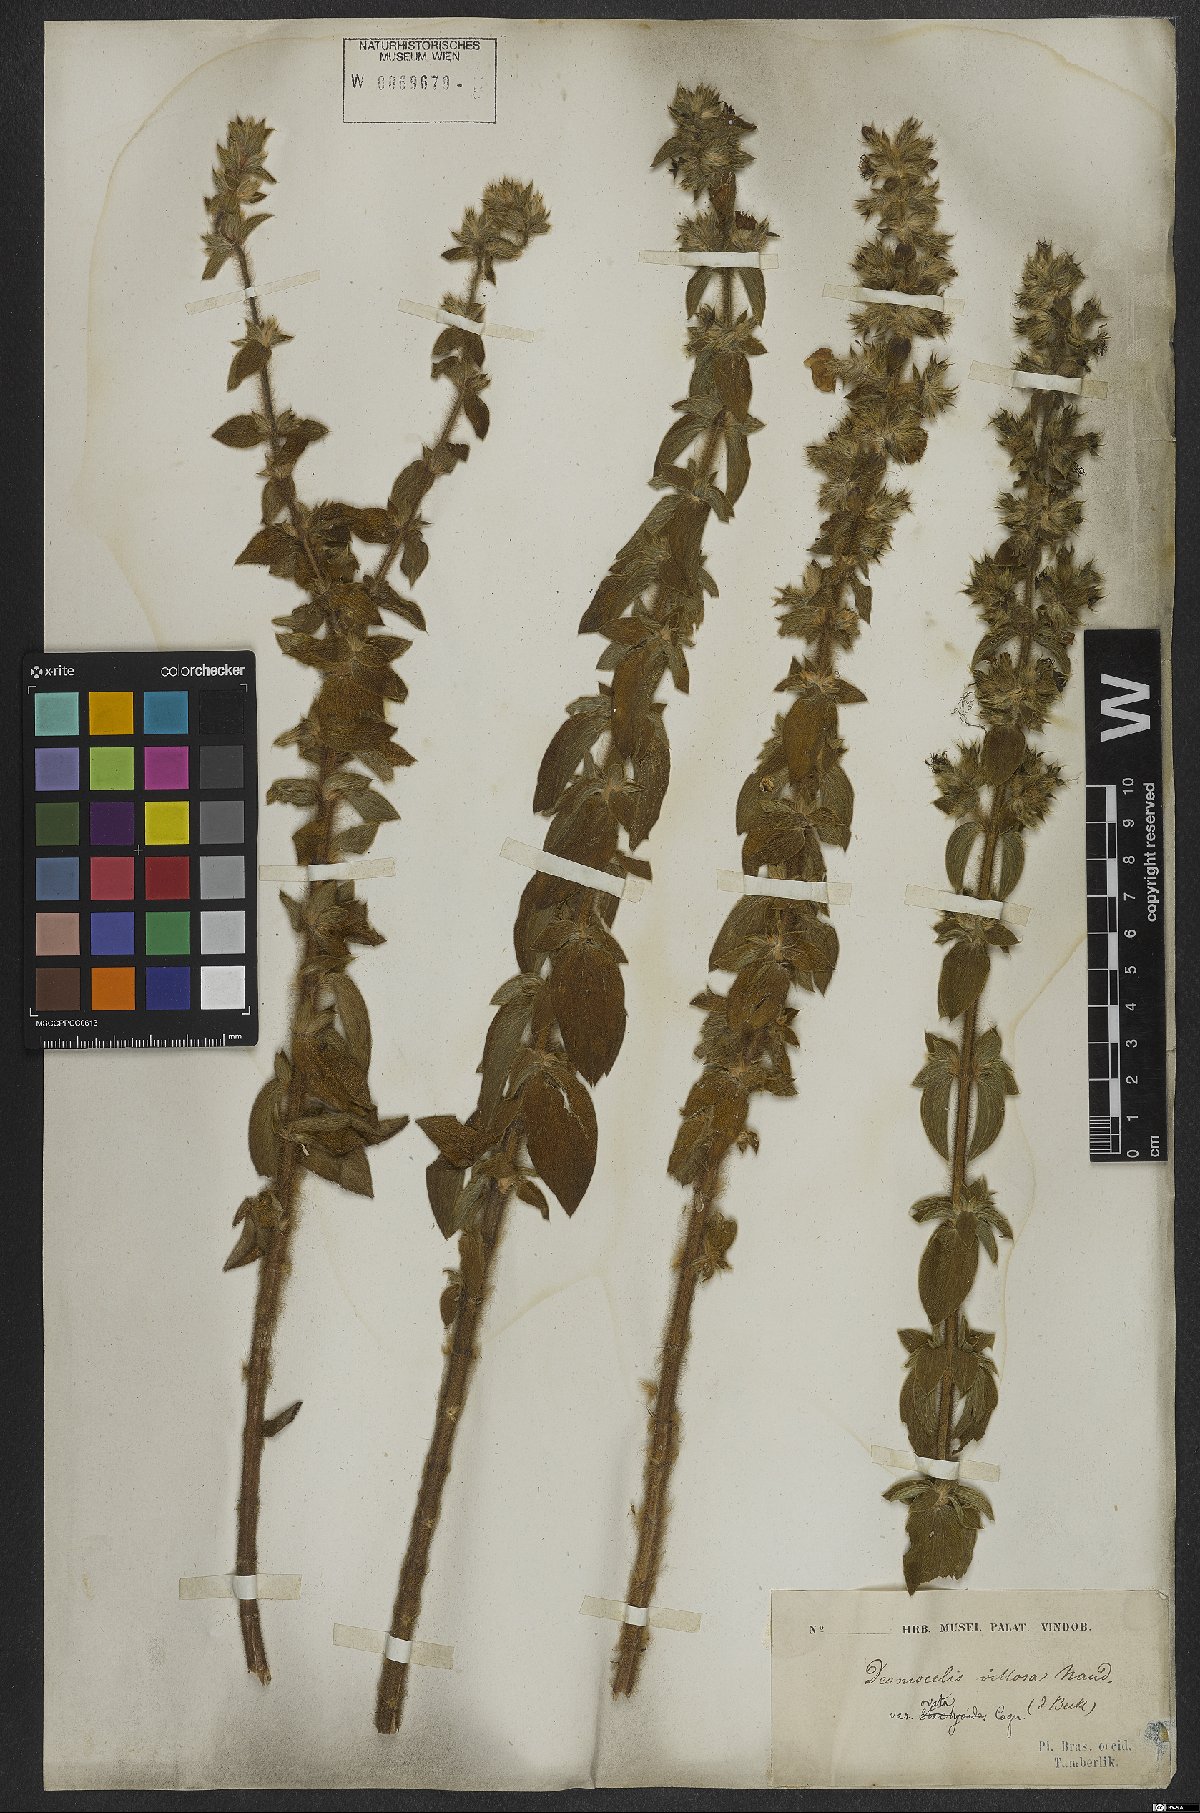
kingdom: Plantae
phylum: Tracheophyta
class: Magnoliopsida
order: Myrtales
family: Melastomataceae
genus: Desmoscelis
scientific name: Desmoscelis villosa
